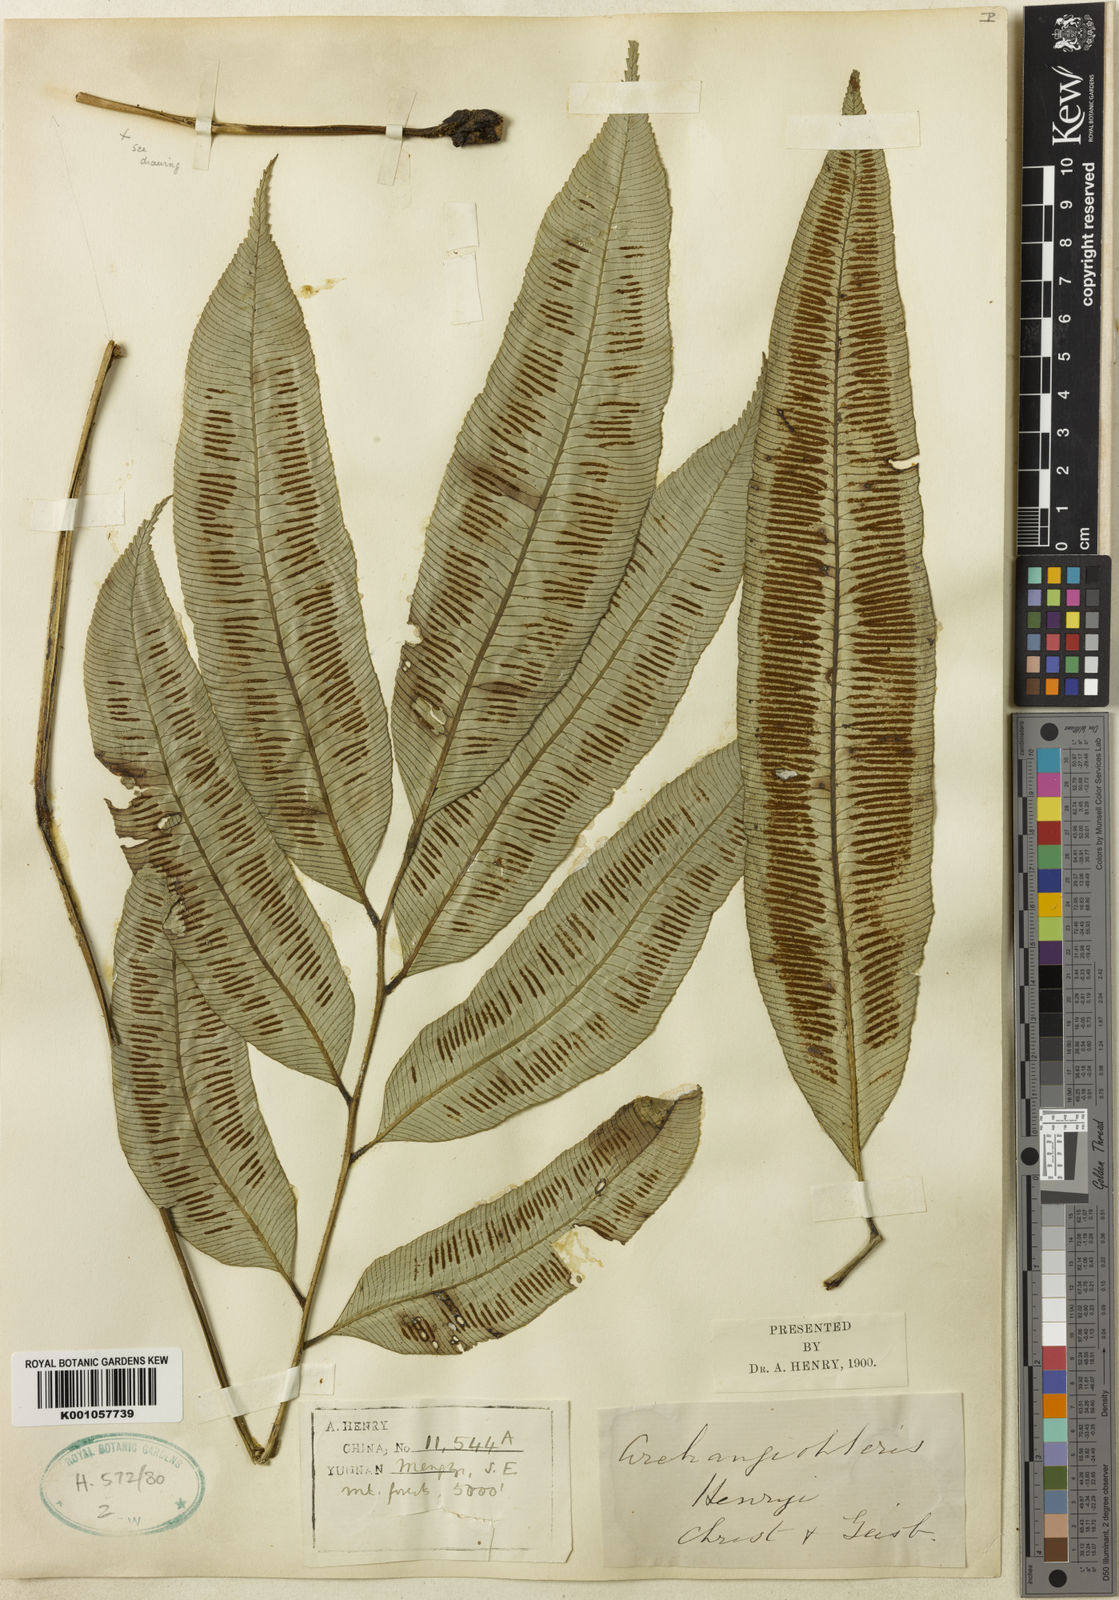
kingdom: Plantae
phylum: Tracheophyta
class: Polypodiopsida
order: Marattiales
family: Marattiaceae
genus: Angiopteris
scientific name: Angiopteris latipinna
